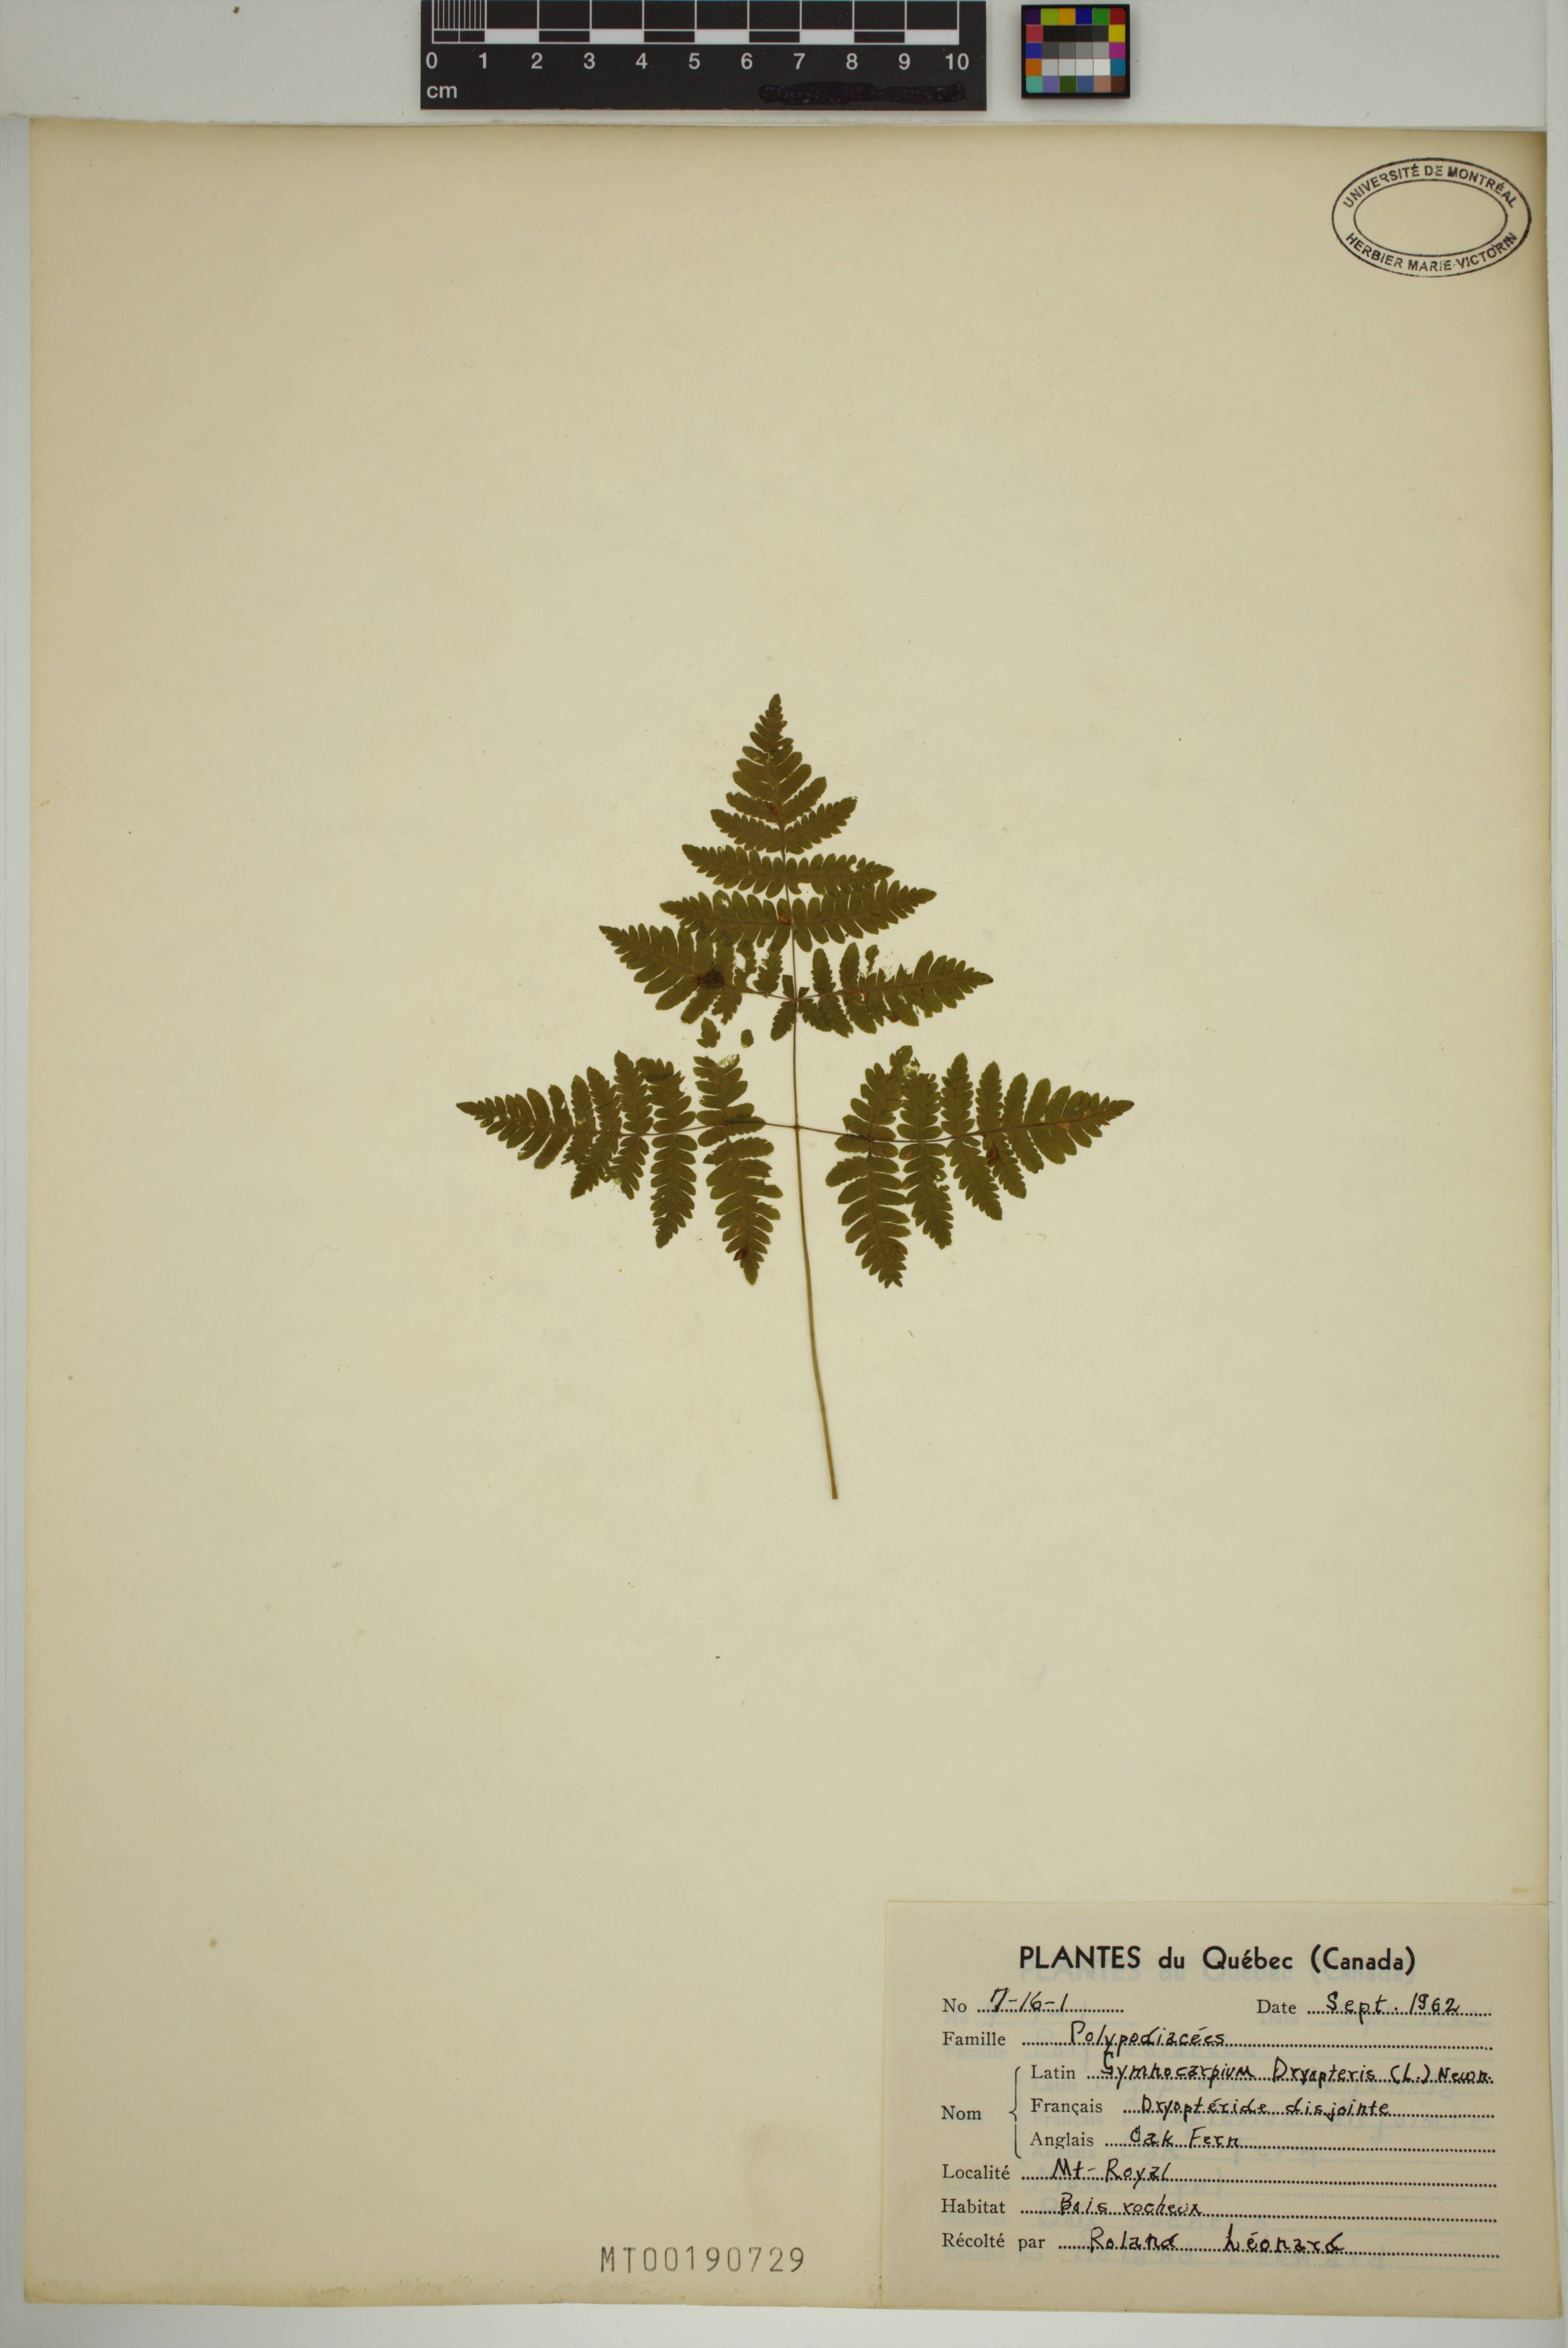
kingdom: Plantae
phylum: Tracheophyta
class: Polypodiopsida
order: Polypodiales
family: Cystopteridaceae
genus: Gymnocarpium
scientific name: Gymnocarpium dryopteris
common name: Oak fern
